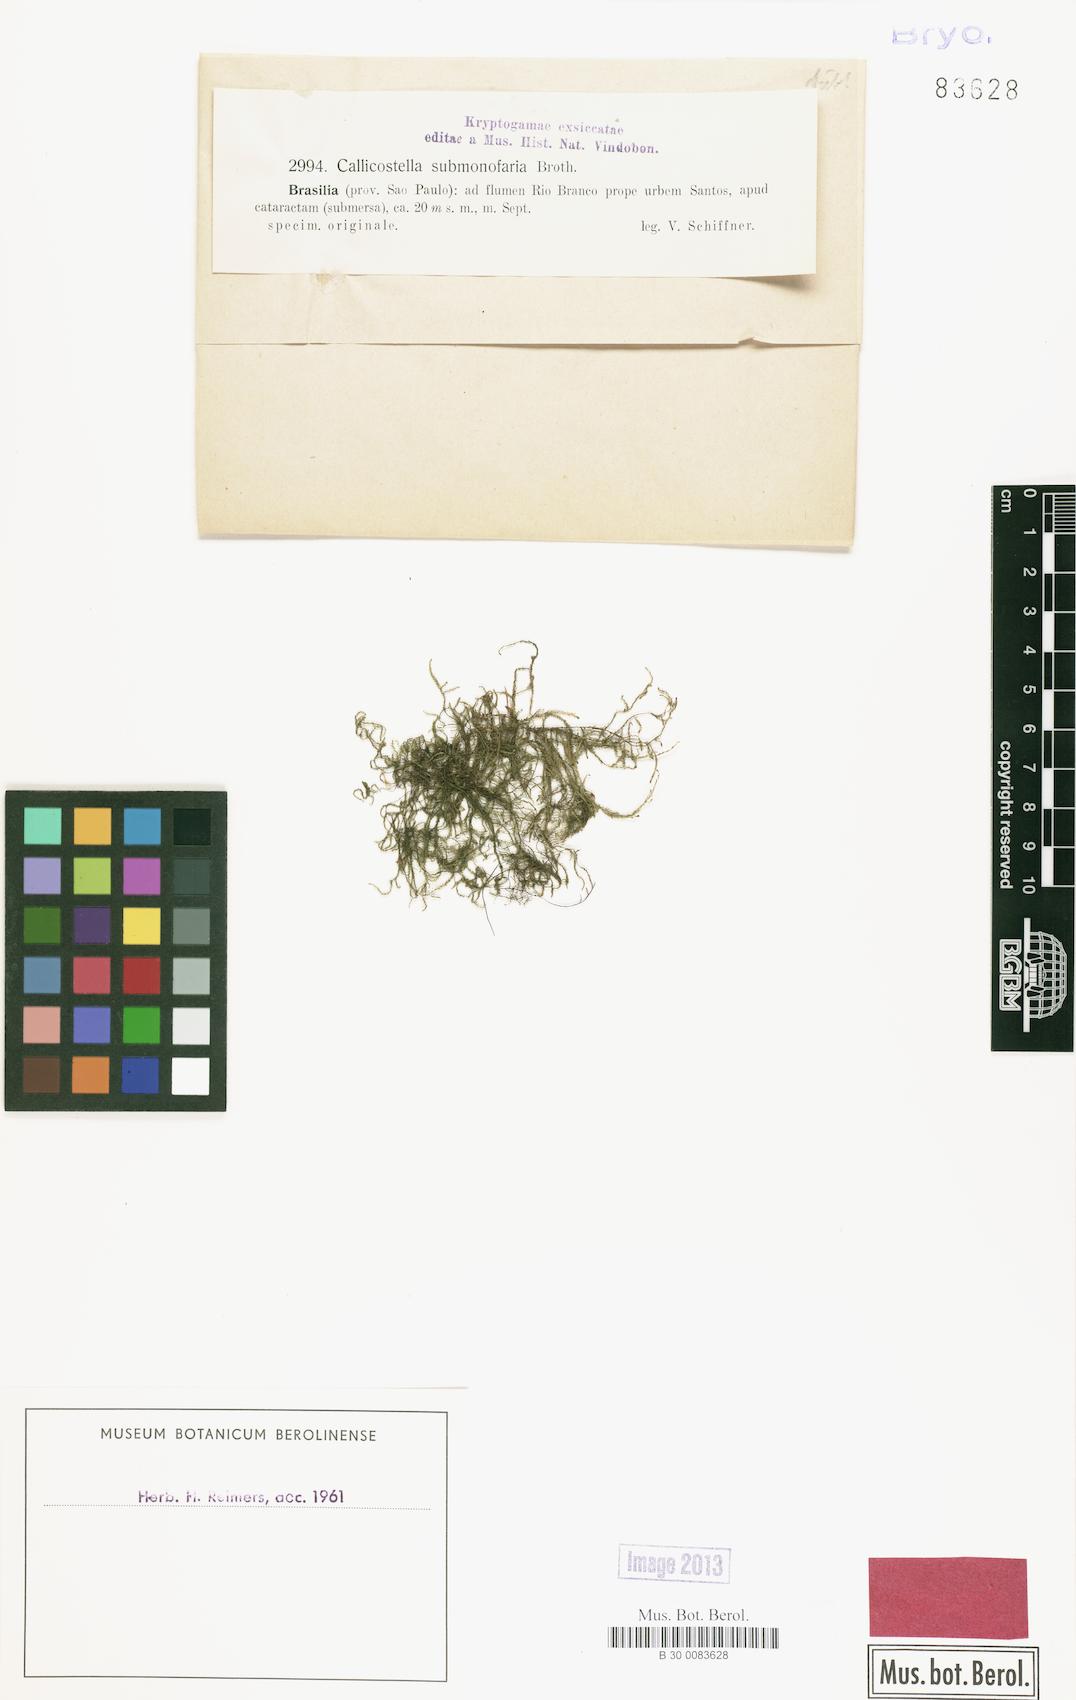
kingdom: Plantae
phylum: Bryophyta
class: Bryopsida
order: Hookeriales
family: Pilotrichaceae
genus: Callicostella
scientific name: Callicostella submonofaria
